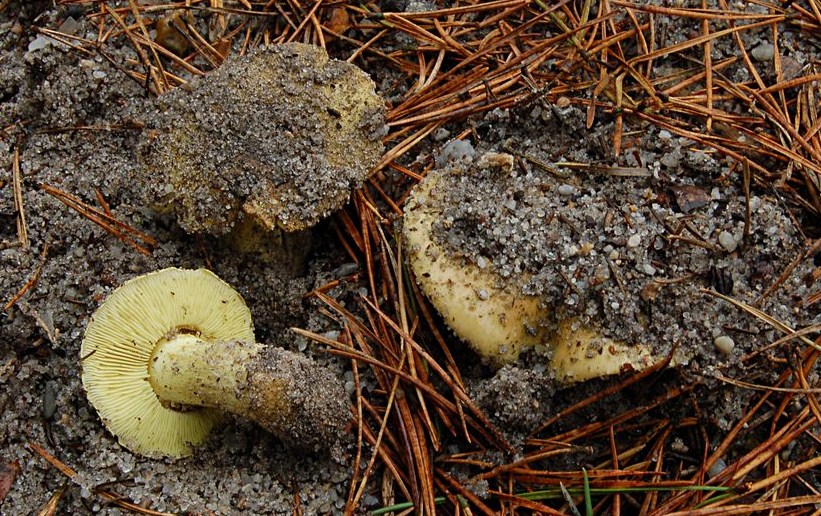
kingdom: Fungi
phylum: Basidiomycota
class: Agaricomycetes
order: Agaricales
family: Tricholomataceae
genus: Tricholoma
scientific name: Tricholoma equestre
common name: ægte ridderhat
